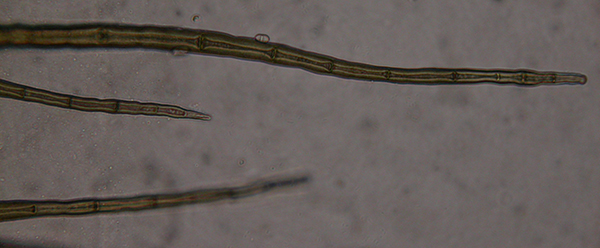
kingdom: Fungi
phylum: Ascomycota
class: Sordariomycetes
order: Sordariales
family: Helminthosphaeriaceae
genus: Hilberina
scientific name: Hilberina
